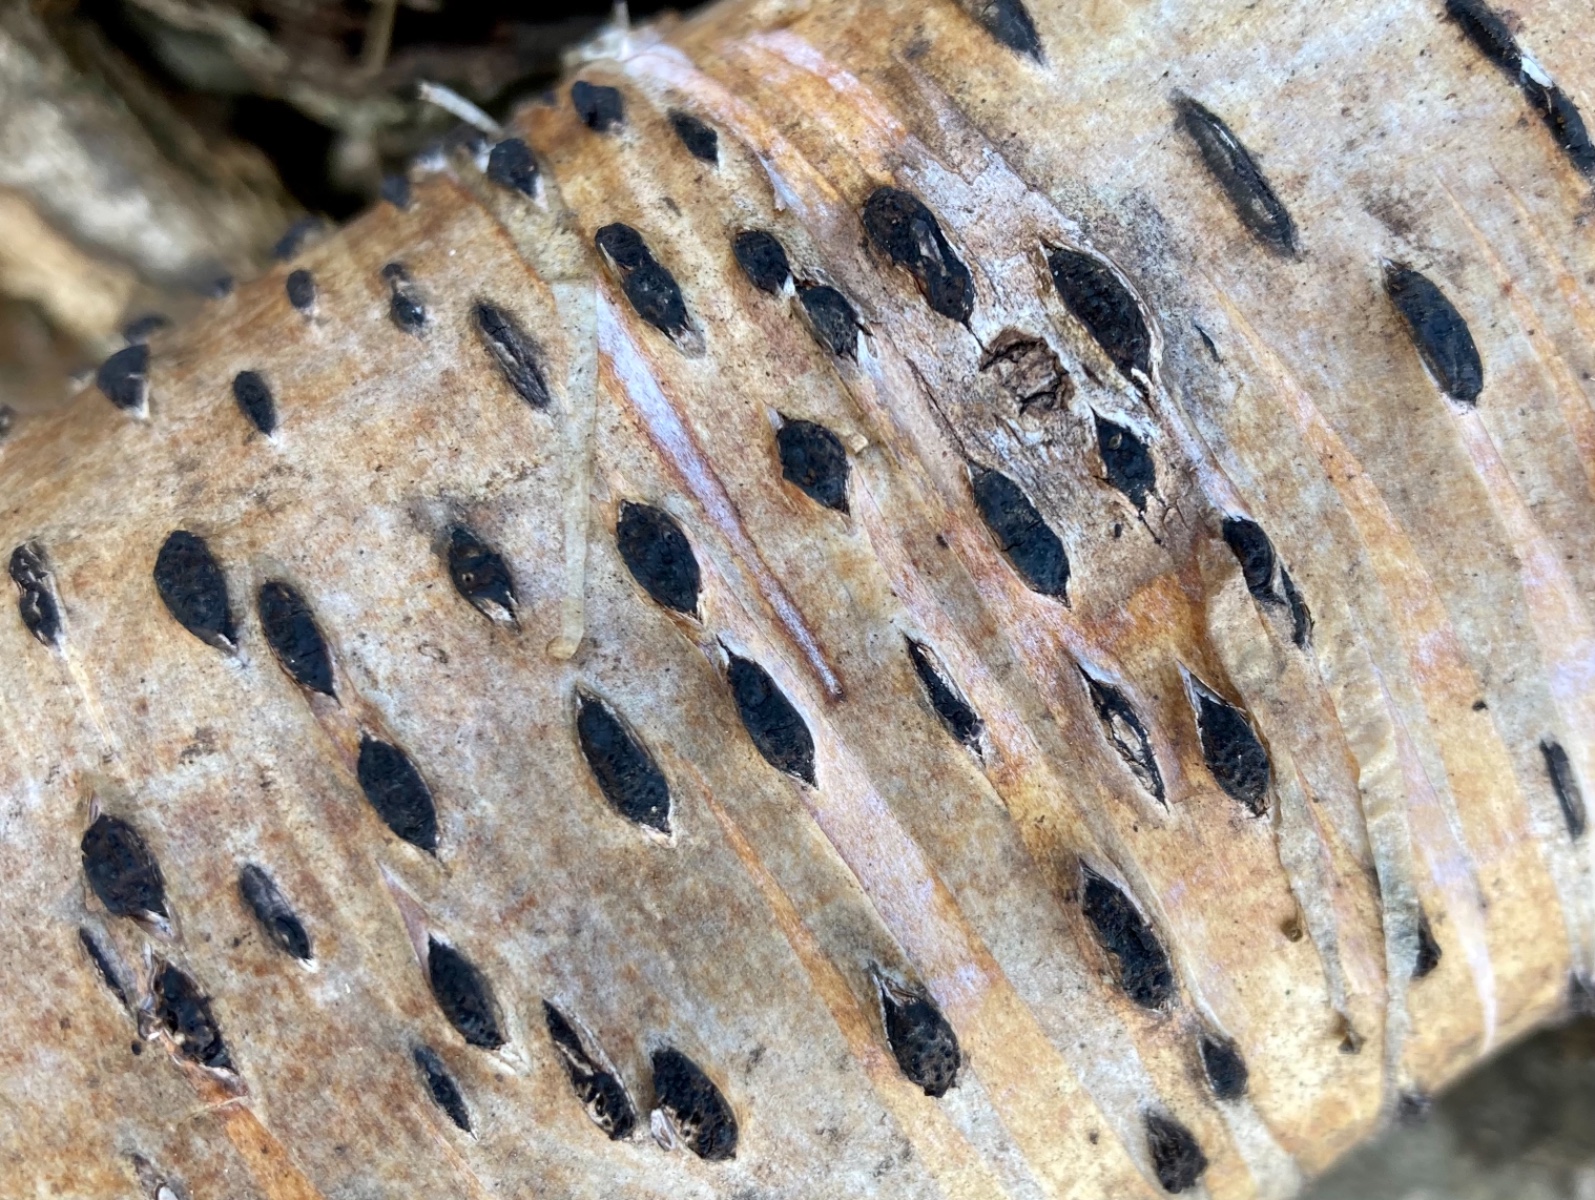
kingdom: Fungi
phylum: Ascomycota
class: Sordariomycetes
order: Xylariales
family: Diatrypaceae
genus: Diatrypella
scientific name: Diatrypella favacea
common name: Birch blackhead
